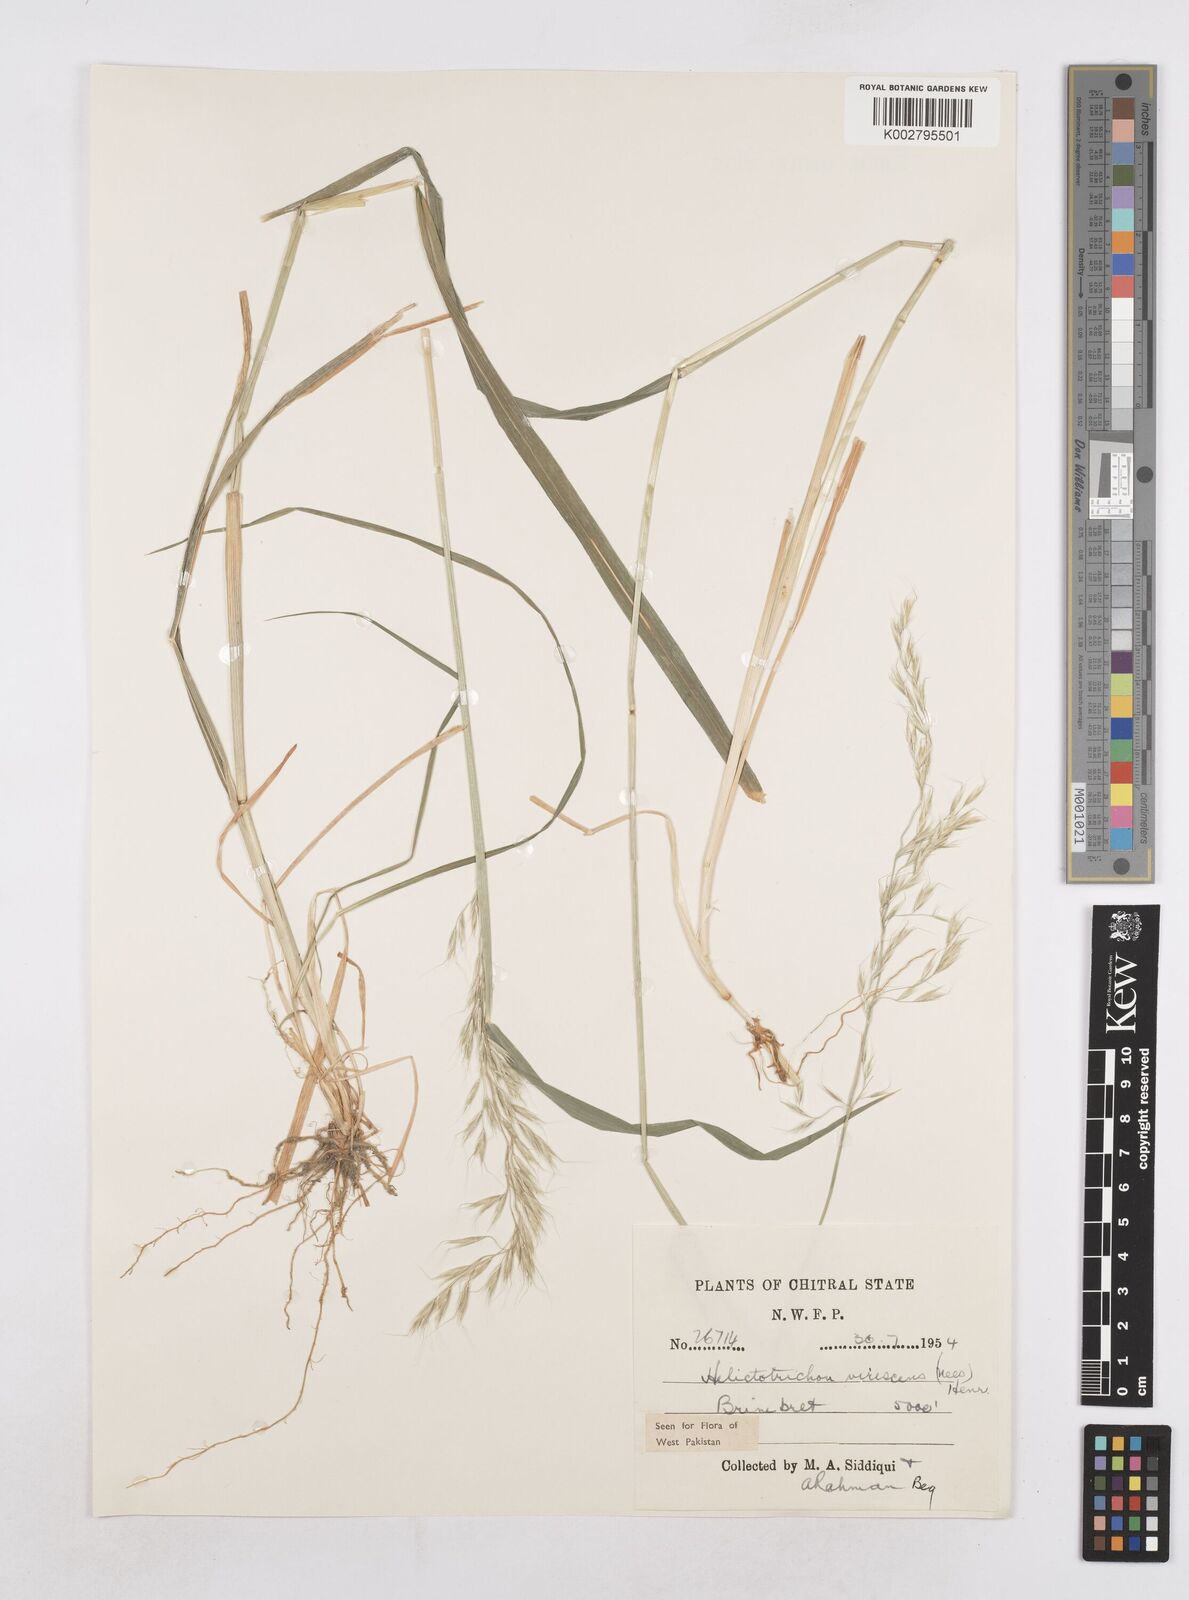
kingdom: Plantae
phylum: Tracheophyta
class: Liliopsida
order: Poales
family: Poaceae
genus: Trisetopsis
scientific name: Trisetopsis junghuhnii
